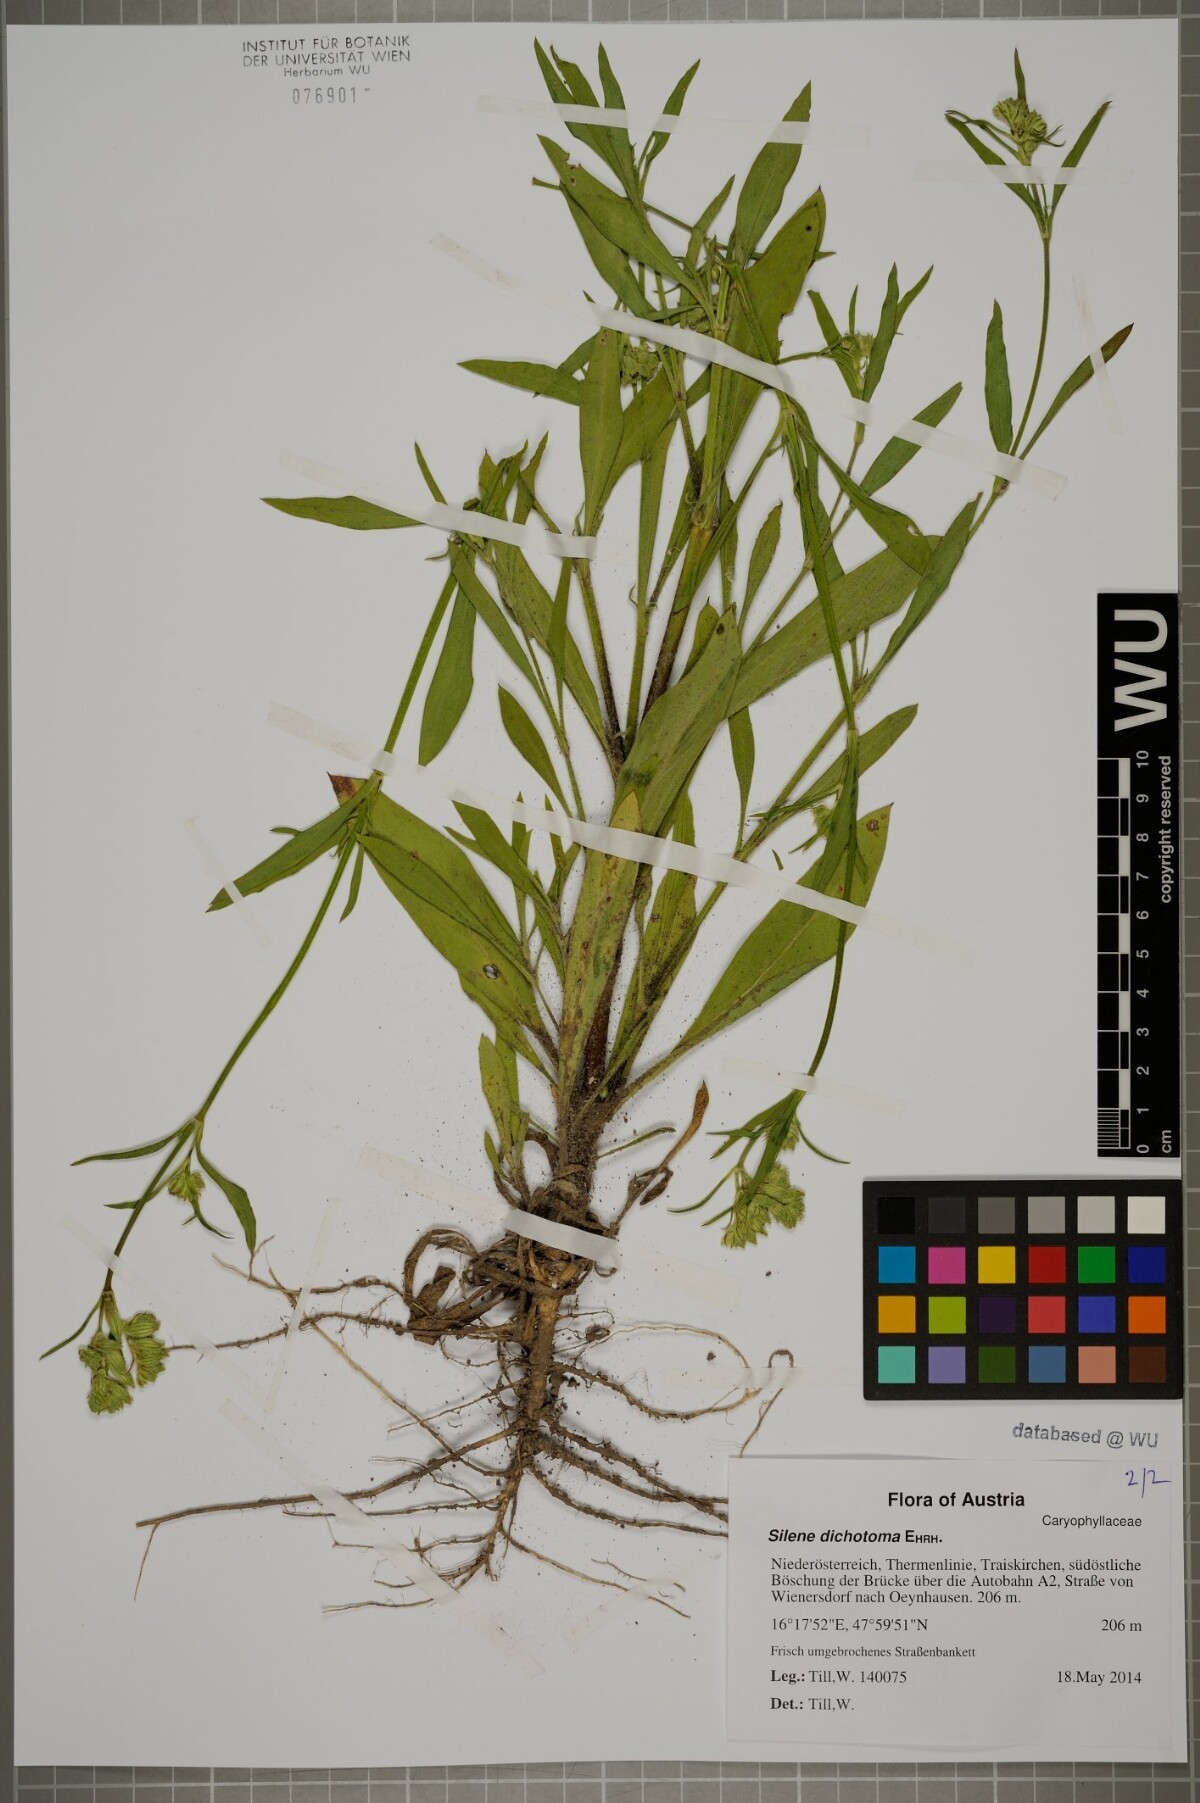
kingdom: Plantae
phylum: Tracheophyta
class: Magnoliopsida
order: Caryophyllales
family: Caryophyllaceae
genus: Silene
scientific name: Silene dichotoma
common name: Forked catchfly
